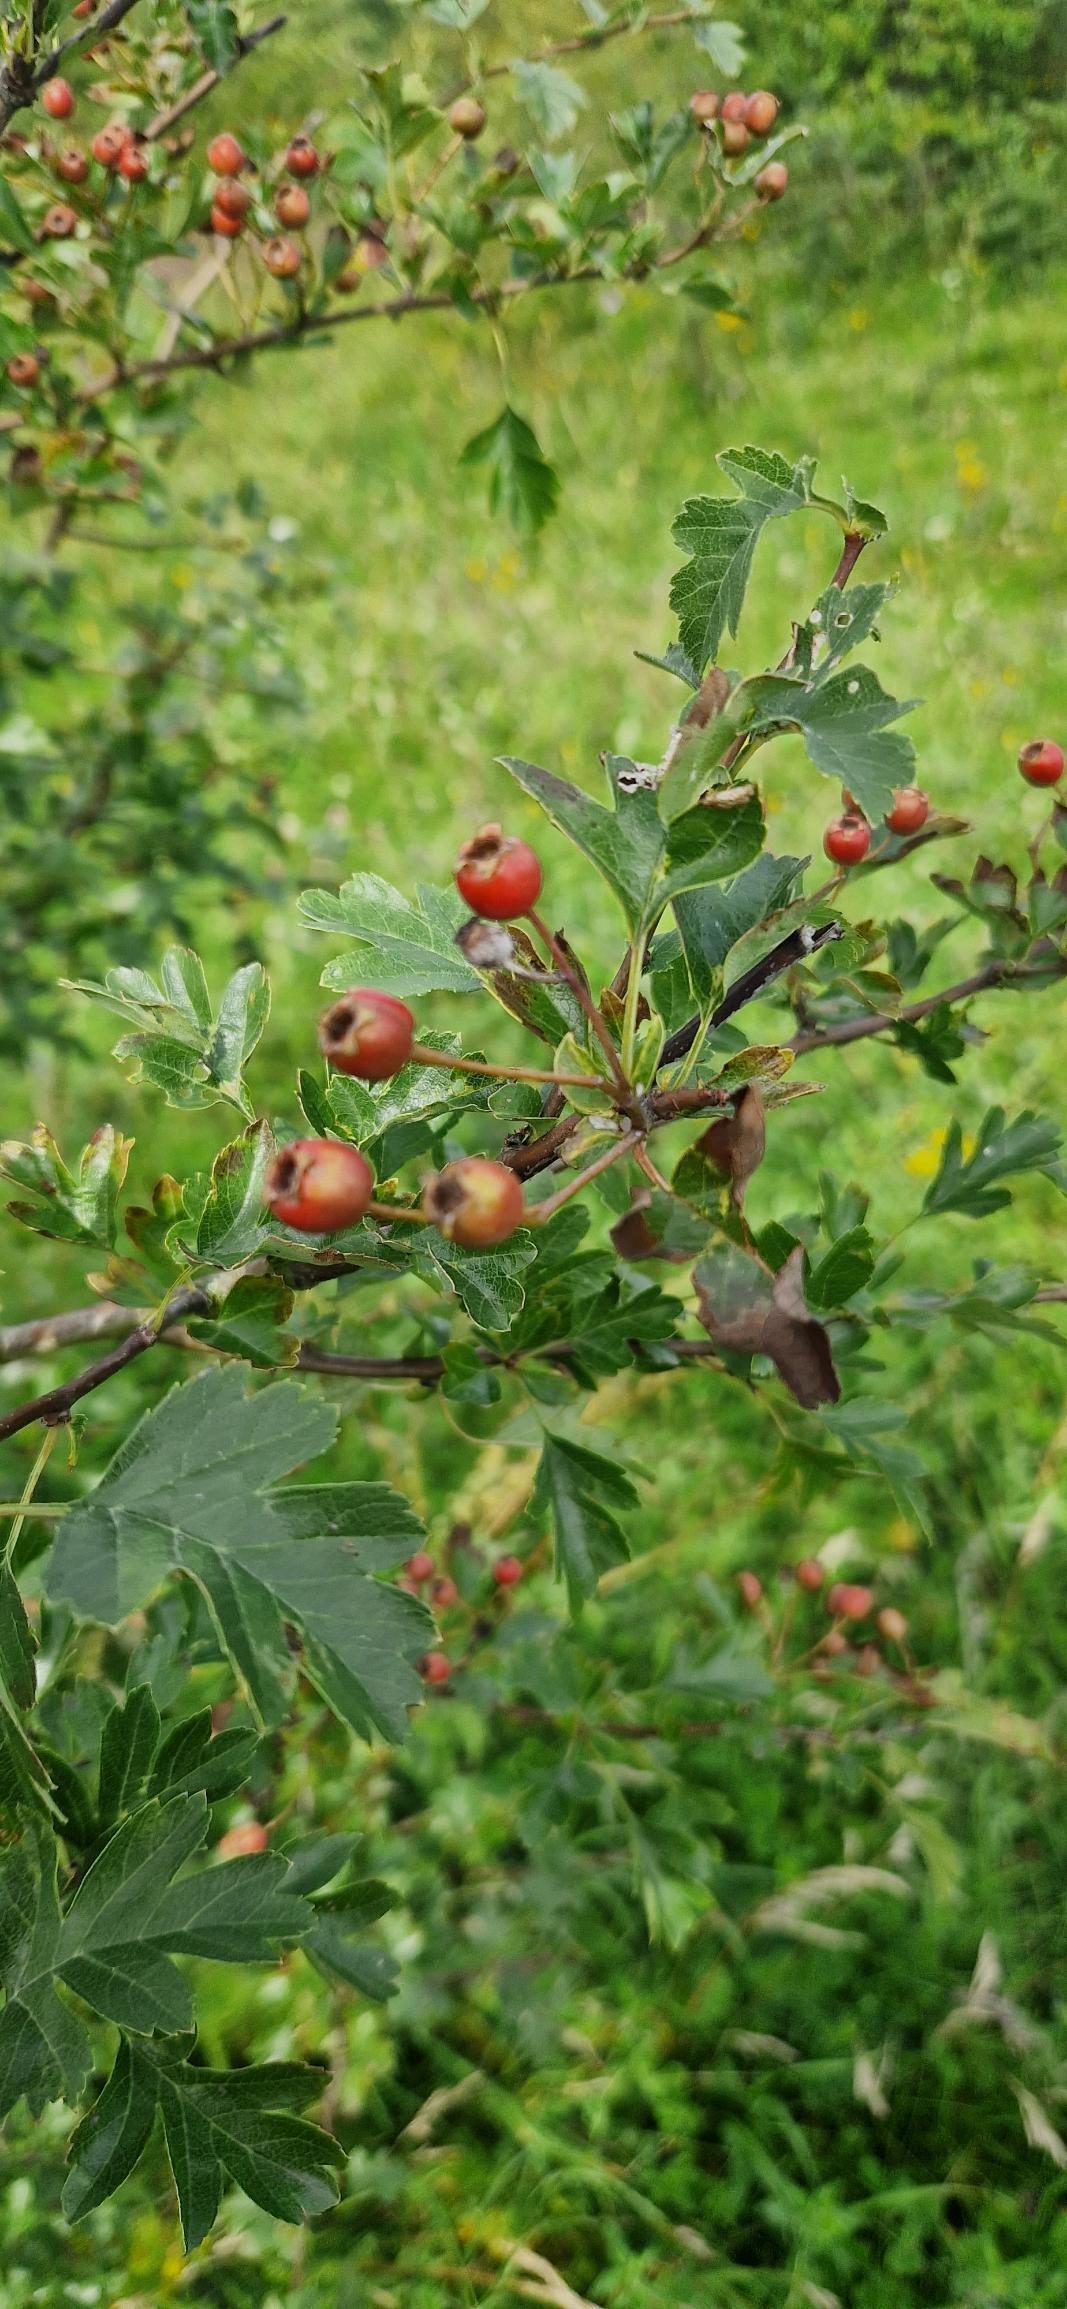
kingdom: Plantae
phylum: Tracheophyta
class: Magnoliopsida
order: Rosales
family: Rosaceae
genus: Crataegus
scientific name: Crataegus monogyna
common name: Engriflet hvidtjørn
